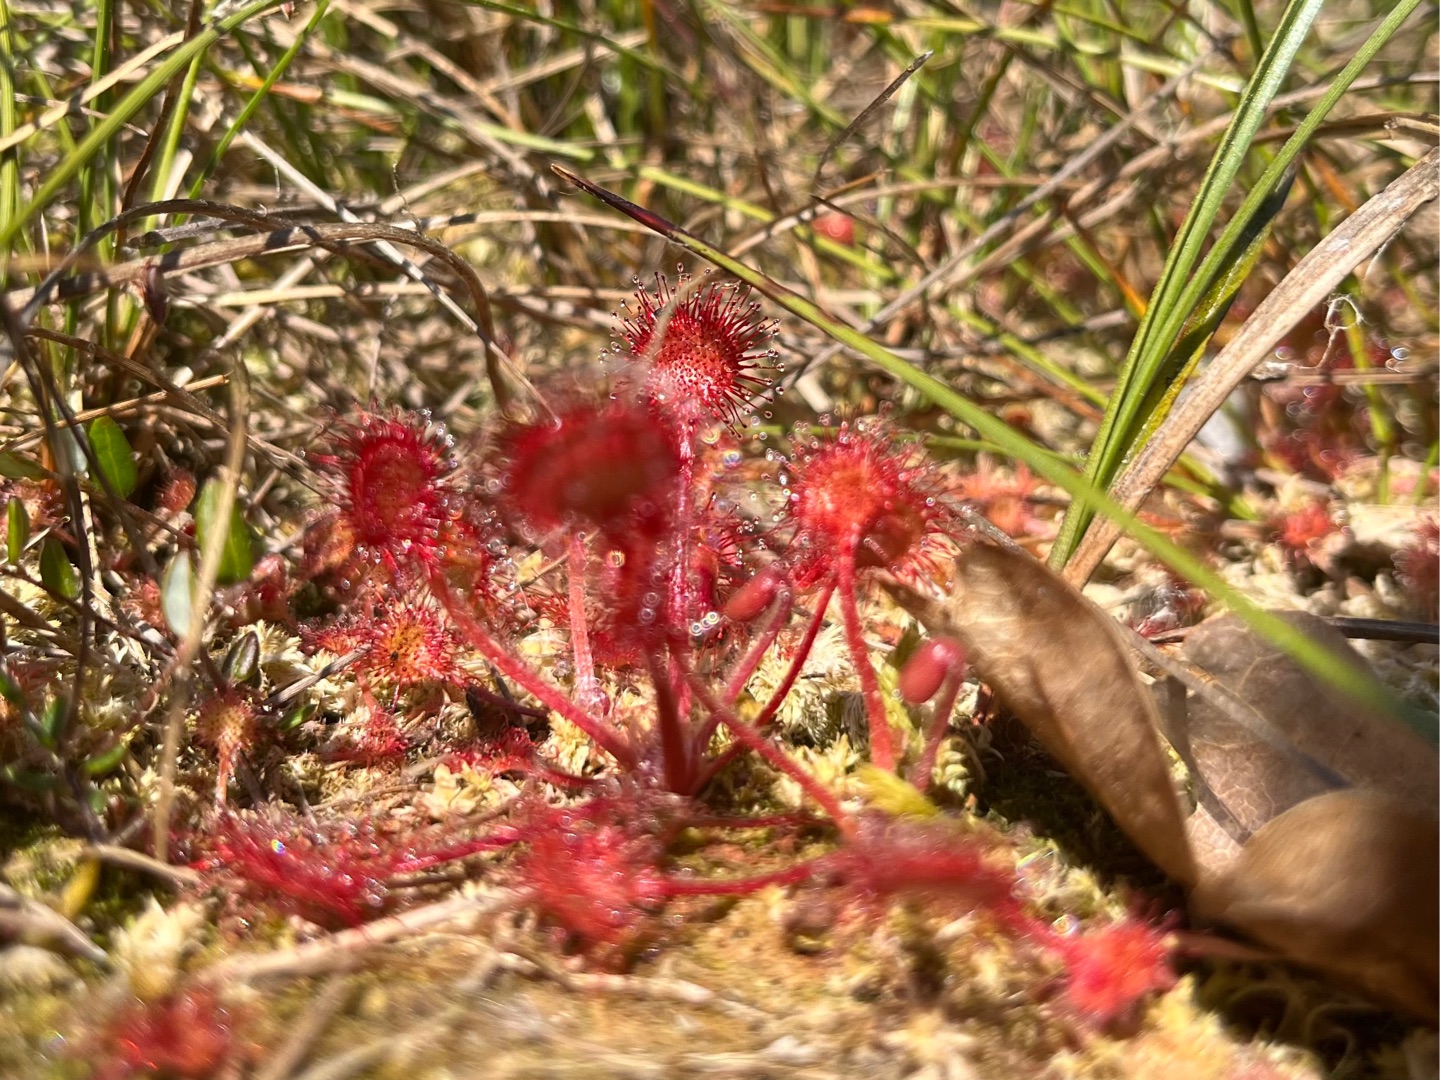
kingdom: Plantae
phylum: Tracheophyta
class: Magnoliopsida
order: Caryophyllales
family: Droseraceae
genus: Drosera
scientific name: Drosera rotundifolia
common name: Rundbladet soldug
